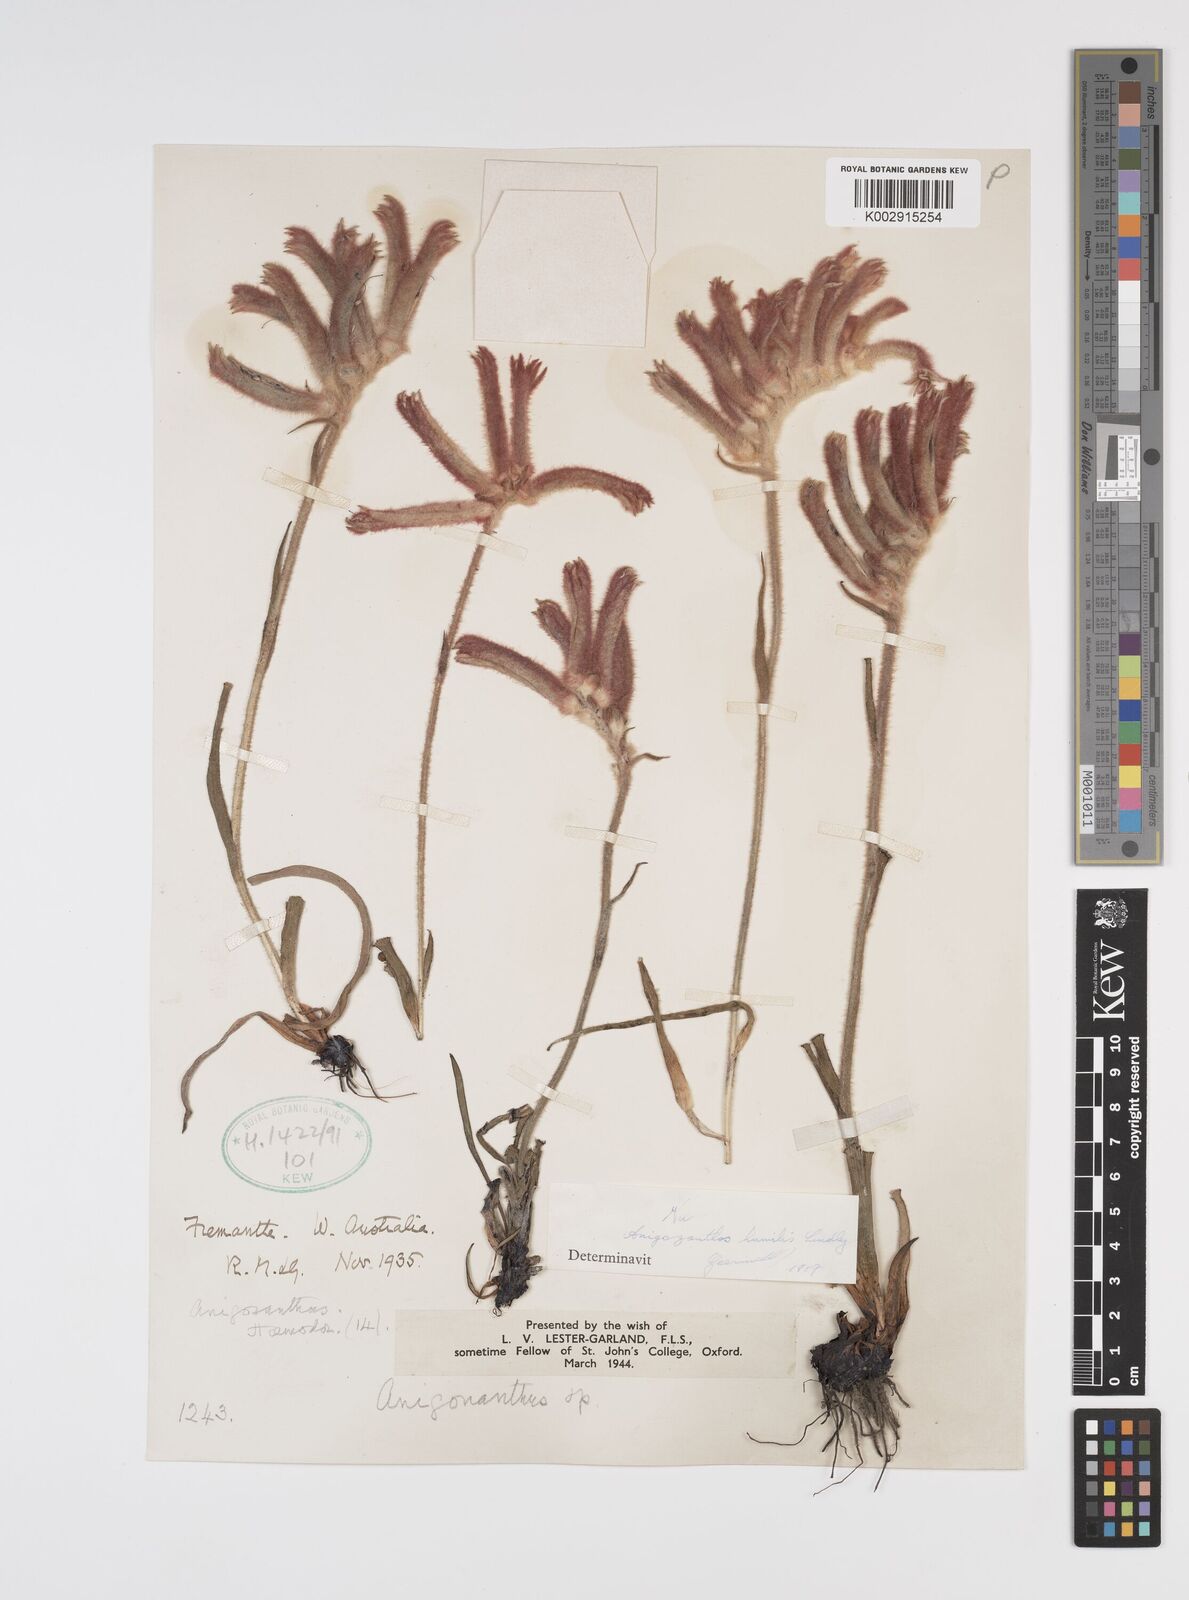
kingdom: Plantae
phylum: Tracheophyta
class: Liliopsida
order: Commelinales
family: Haemodoraceae
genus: Anigozanthos
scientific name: Anigozanthos humilis
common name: Cat's-paw
